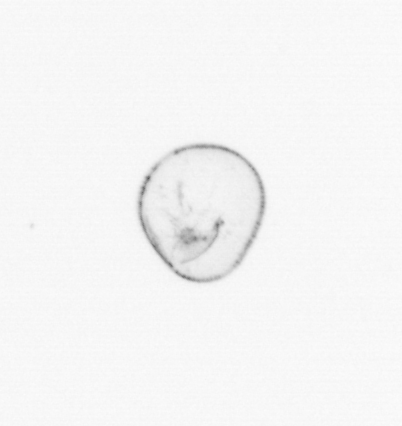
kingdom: Chromista
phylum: Myzozoa
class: Dinophyceae
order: Noctilucales
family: Noctilucaceae
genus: Noctiluca
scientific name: Noctiluca scintillans
